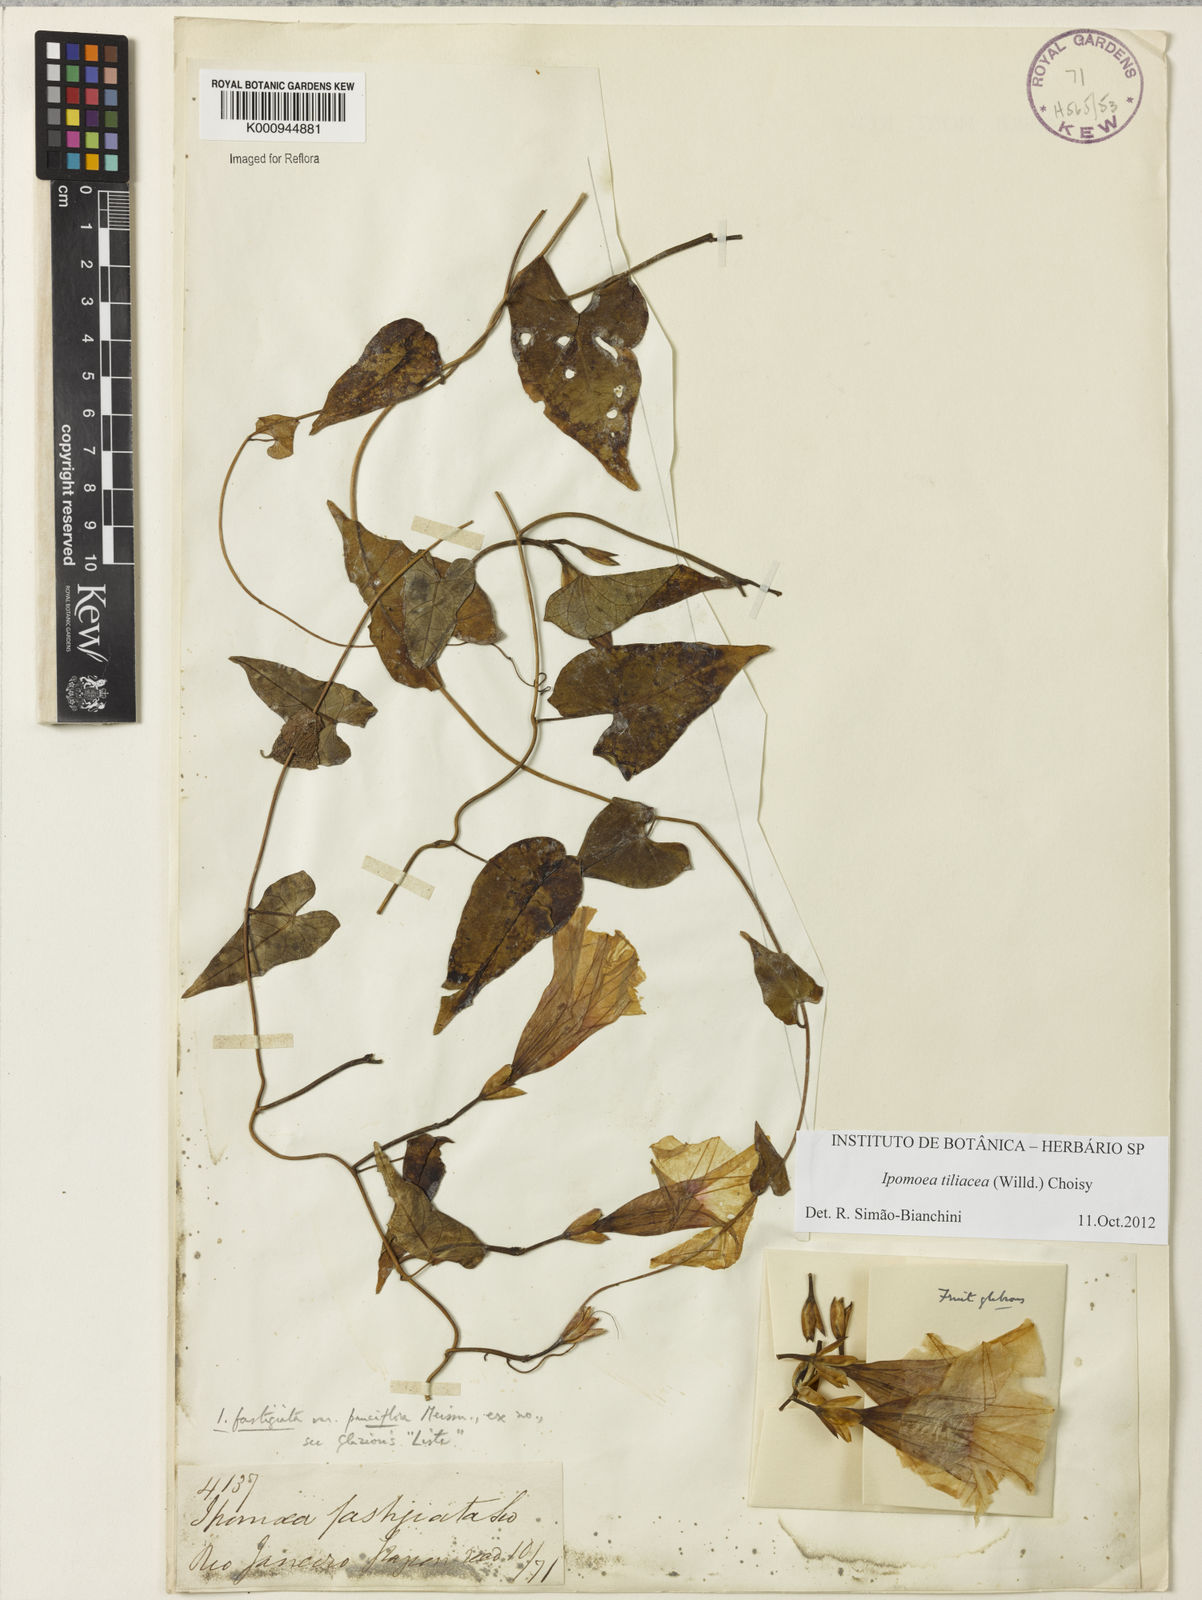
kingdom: Plantae
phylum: Tracheophyta
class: Magnoliopsida
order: Solanales
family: Convolvulaceae
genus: Ipomoea
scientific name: Ipomoea tiliacea
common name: Wild potato vine
